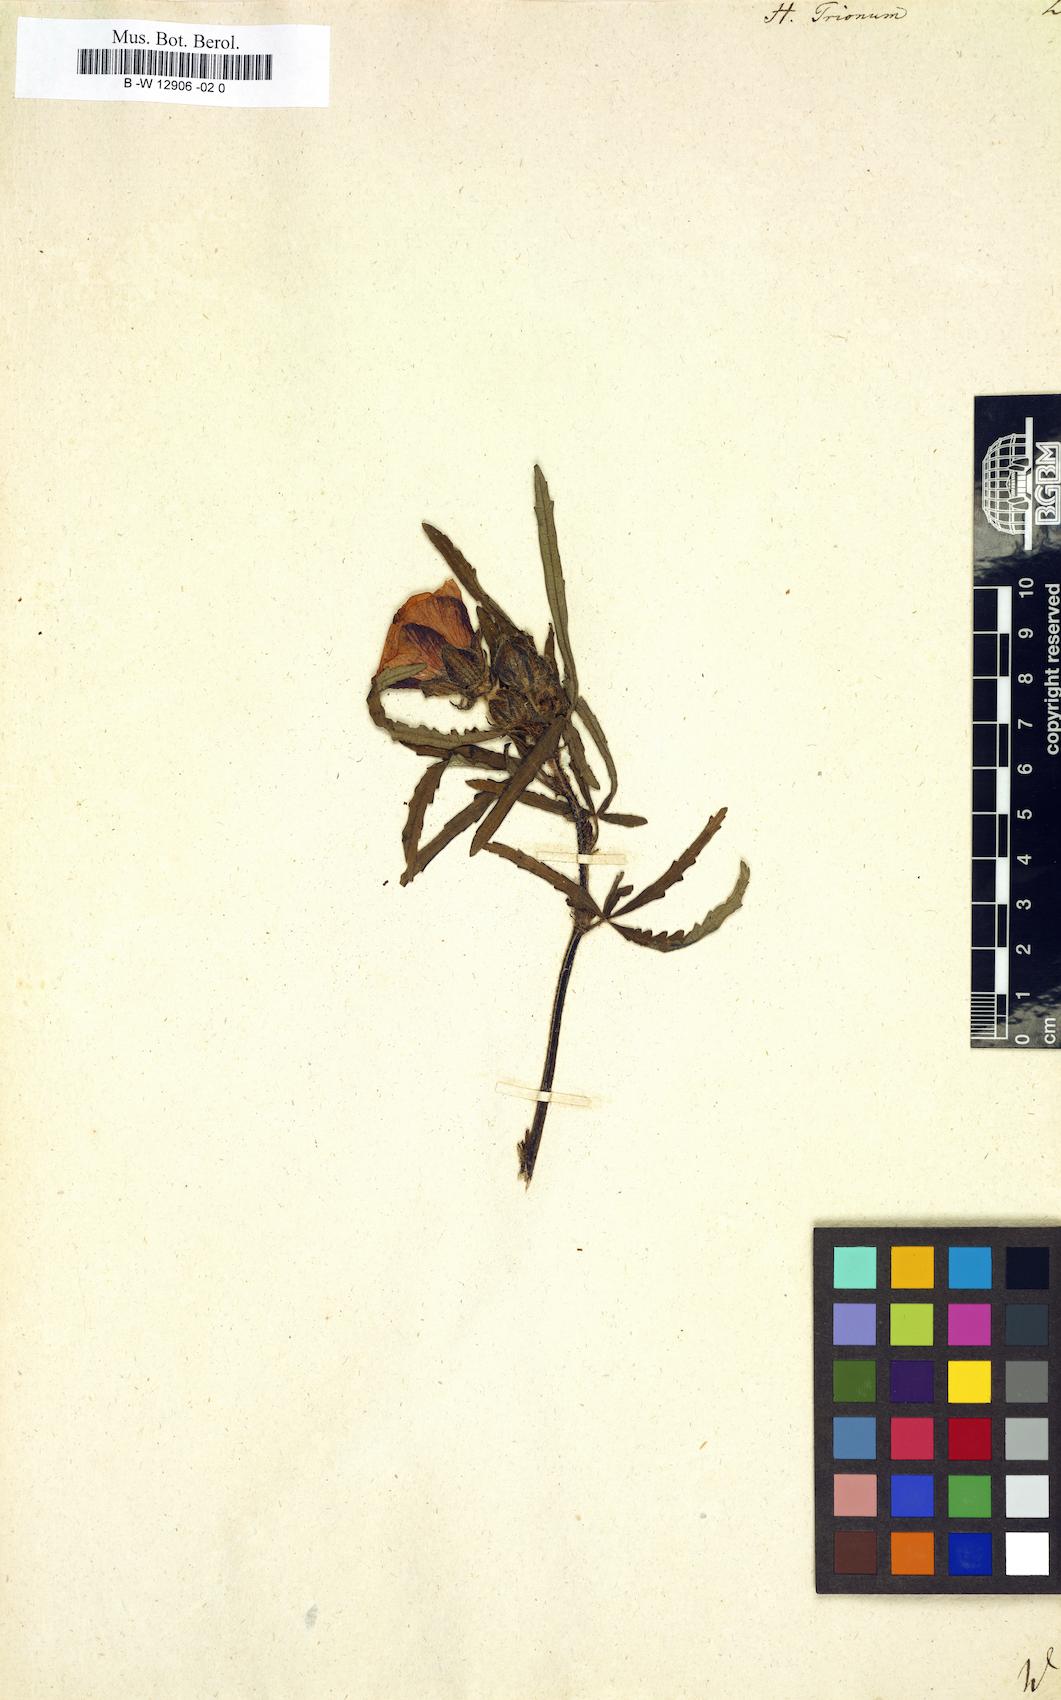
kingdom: Plantae
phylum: Tracheophyta
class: Magnoliopsida
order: Malvales
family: Malvaceae
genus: Hibiscus
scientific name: Hibiscus trionum
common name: Bladder ketmia
